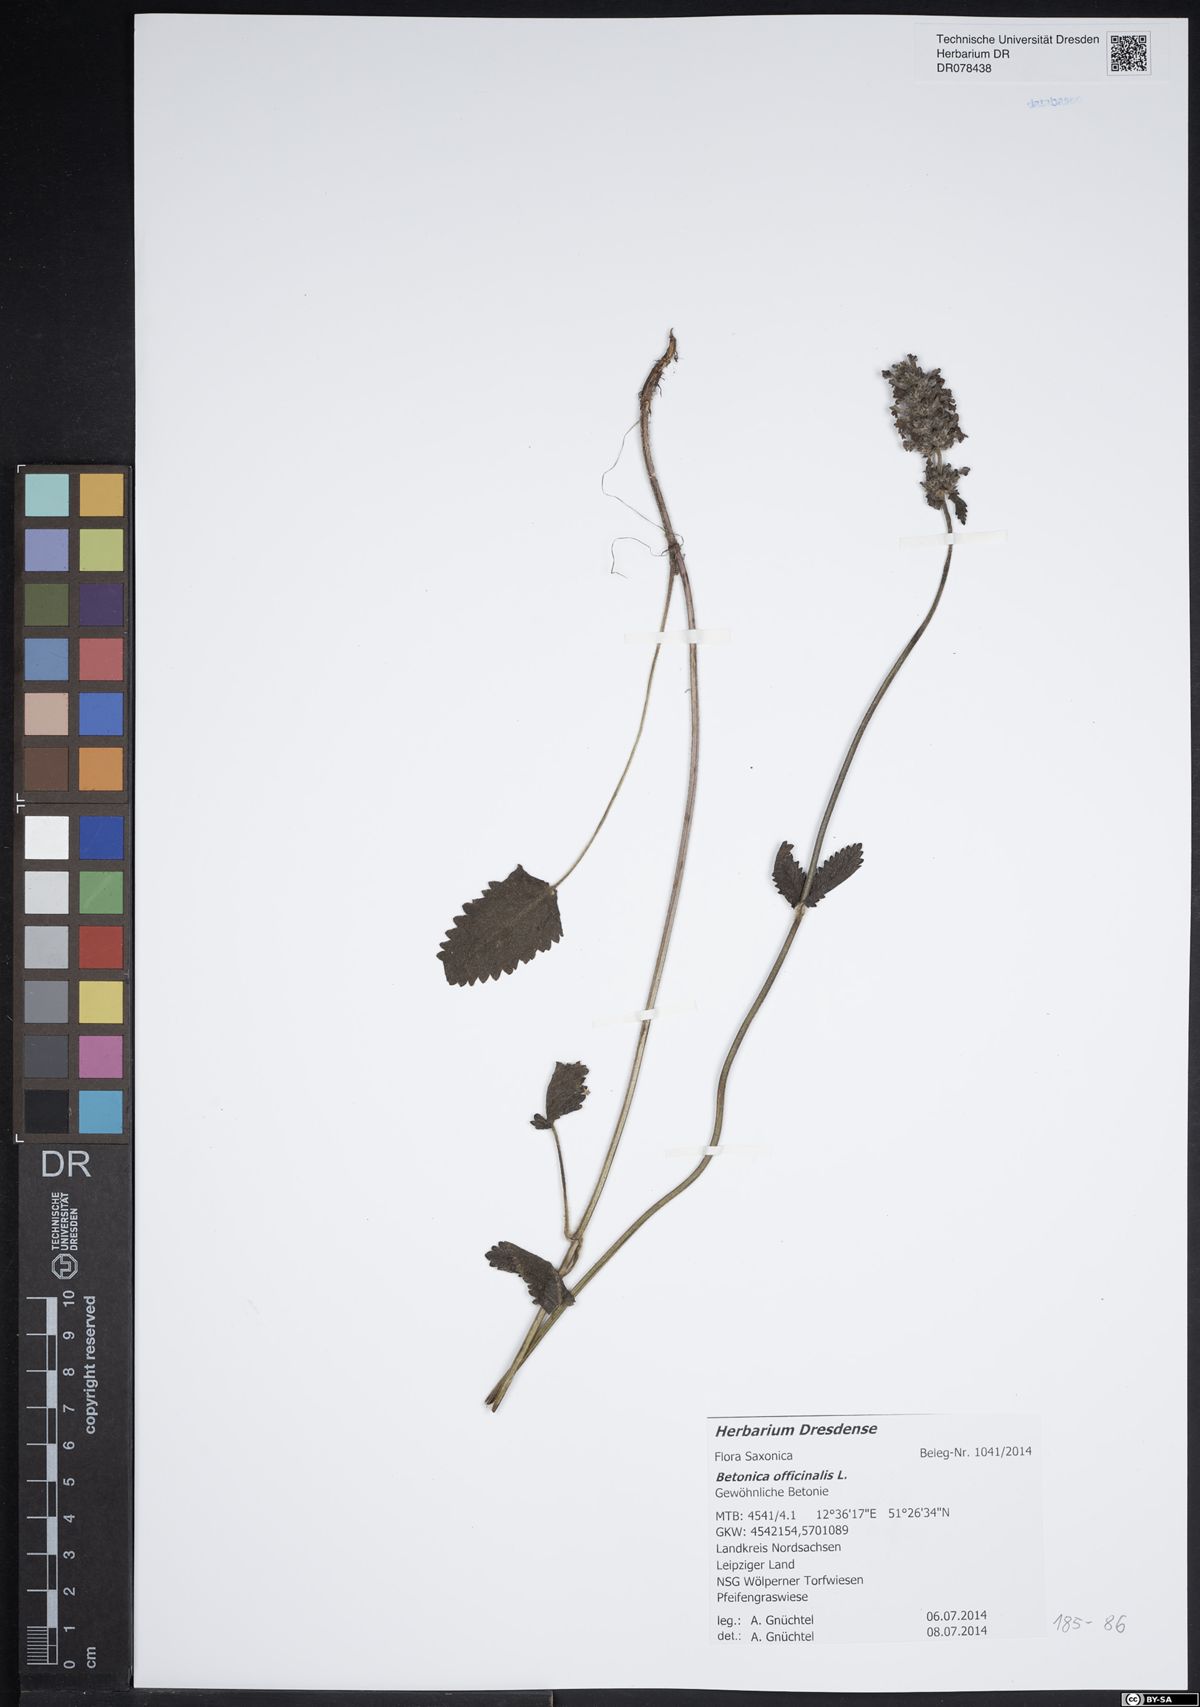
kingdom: Plantae
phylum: Tracheophyta
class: Magnoliopsida
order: Lamiales
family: Lamiaceae
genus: Betonica
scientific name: Betonica officinalis
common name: Bishop's-wort
